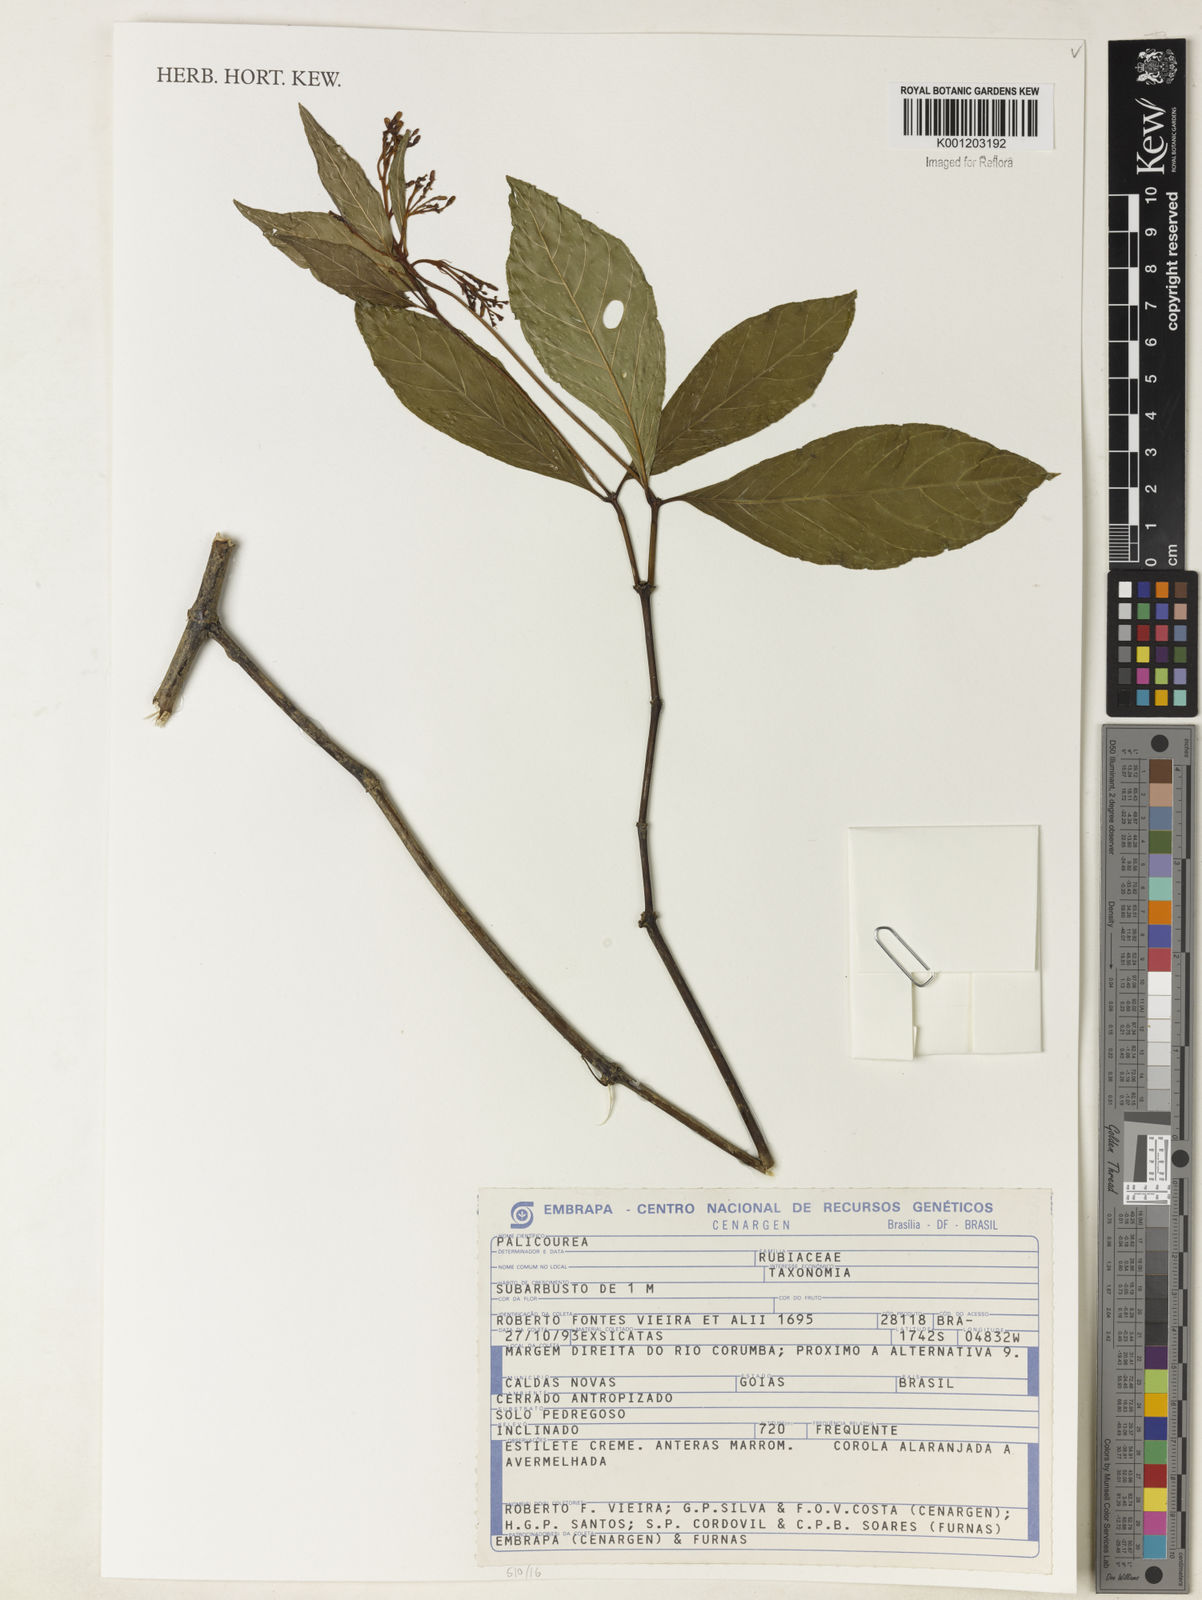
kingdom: Plantae
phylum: Tracheophyta
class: Magnoliopsida
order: Gentianales
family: Rubiaceae
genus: Palicourea
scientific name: Palicourea
